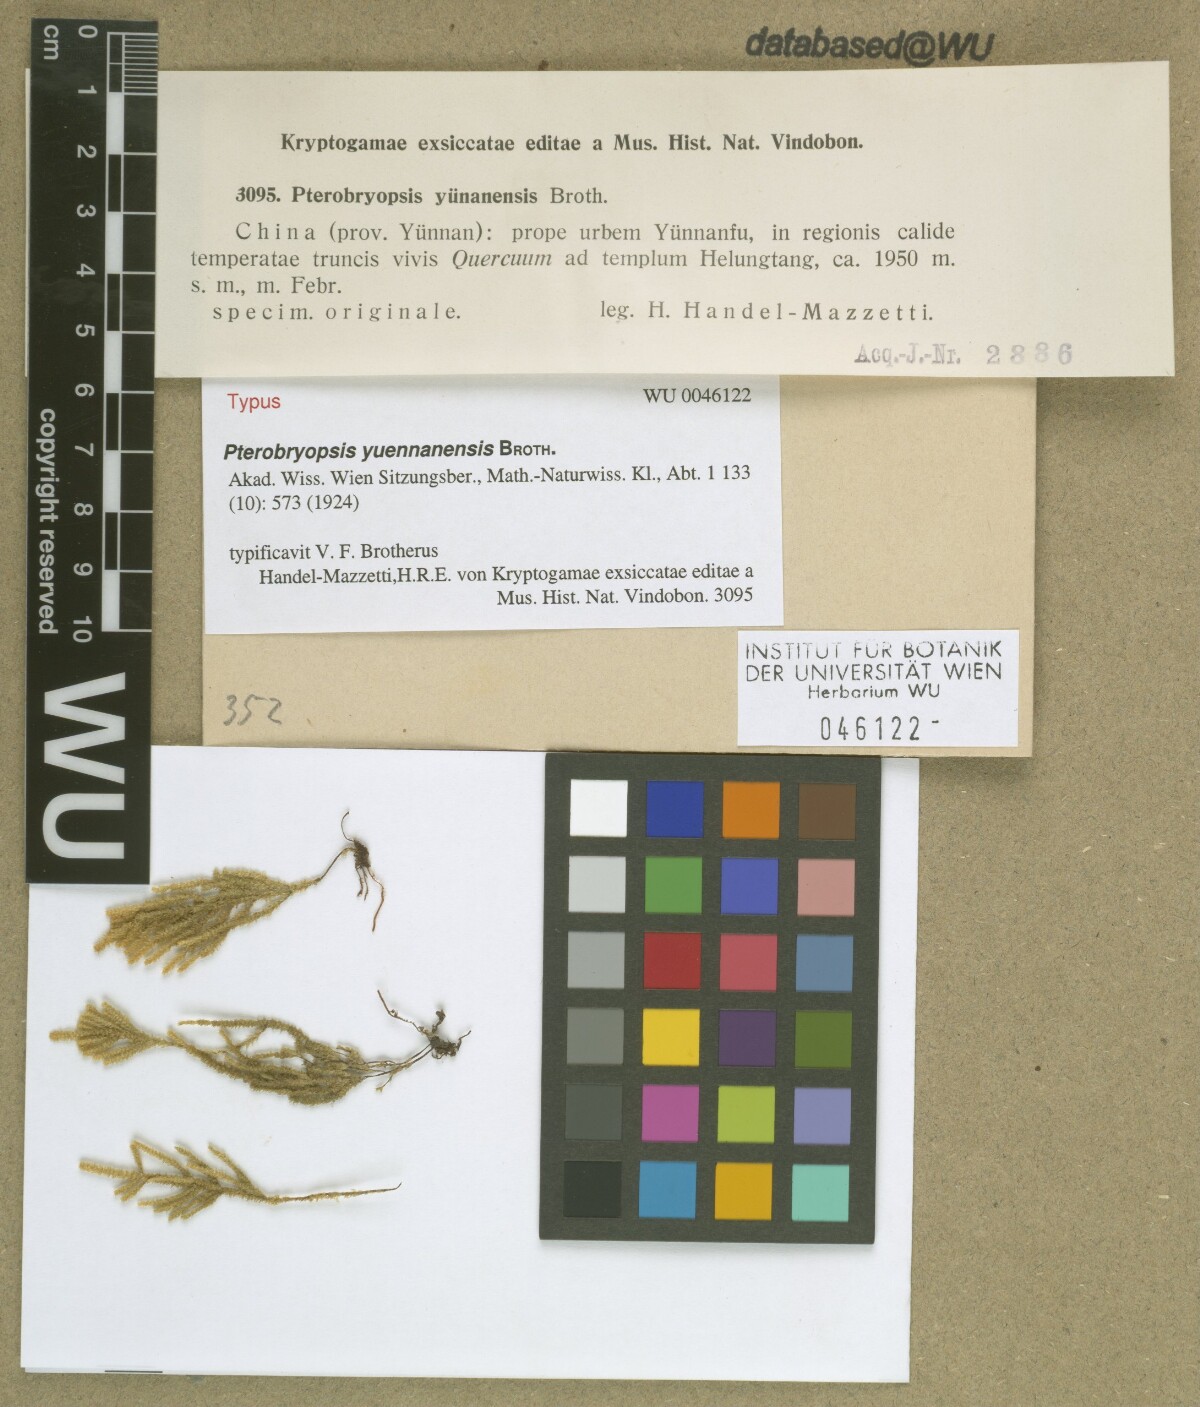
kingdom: Plantae
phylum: Bryophyta
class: Bryopsida
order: Hypnales
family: Pterobryaceae
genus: Pterobryopsis
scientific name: Pterobryopsis orientalis
